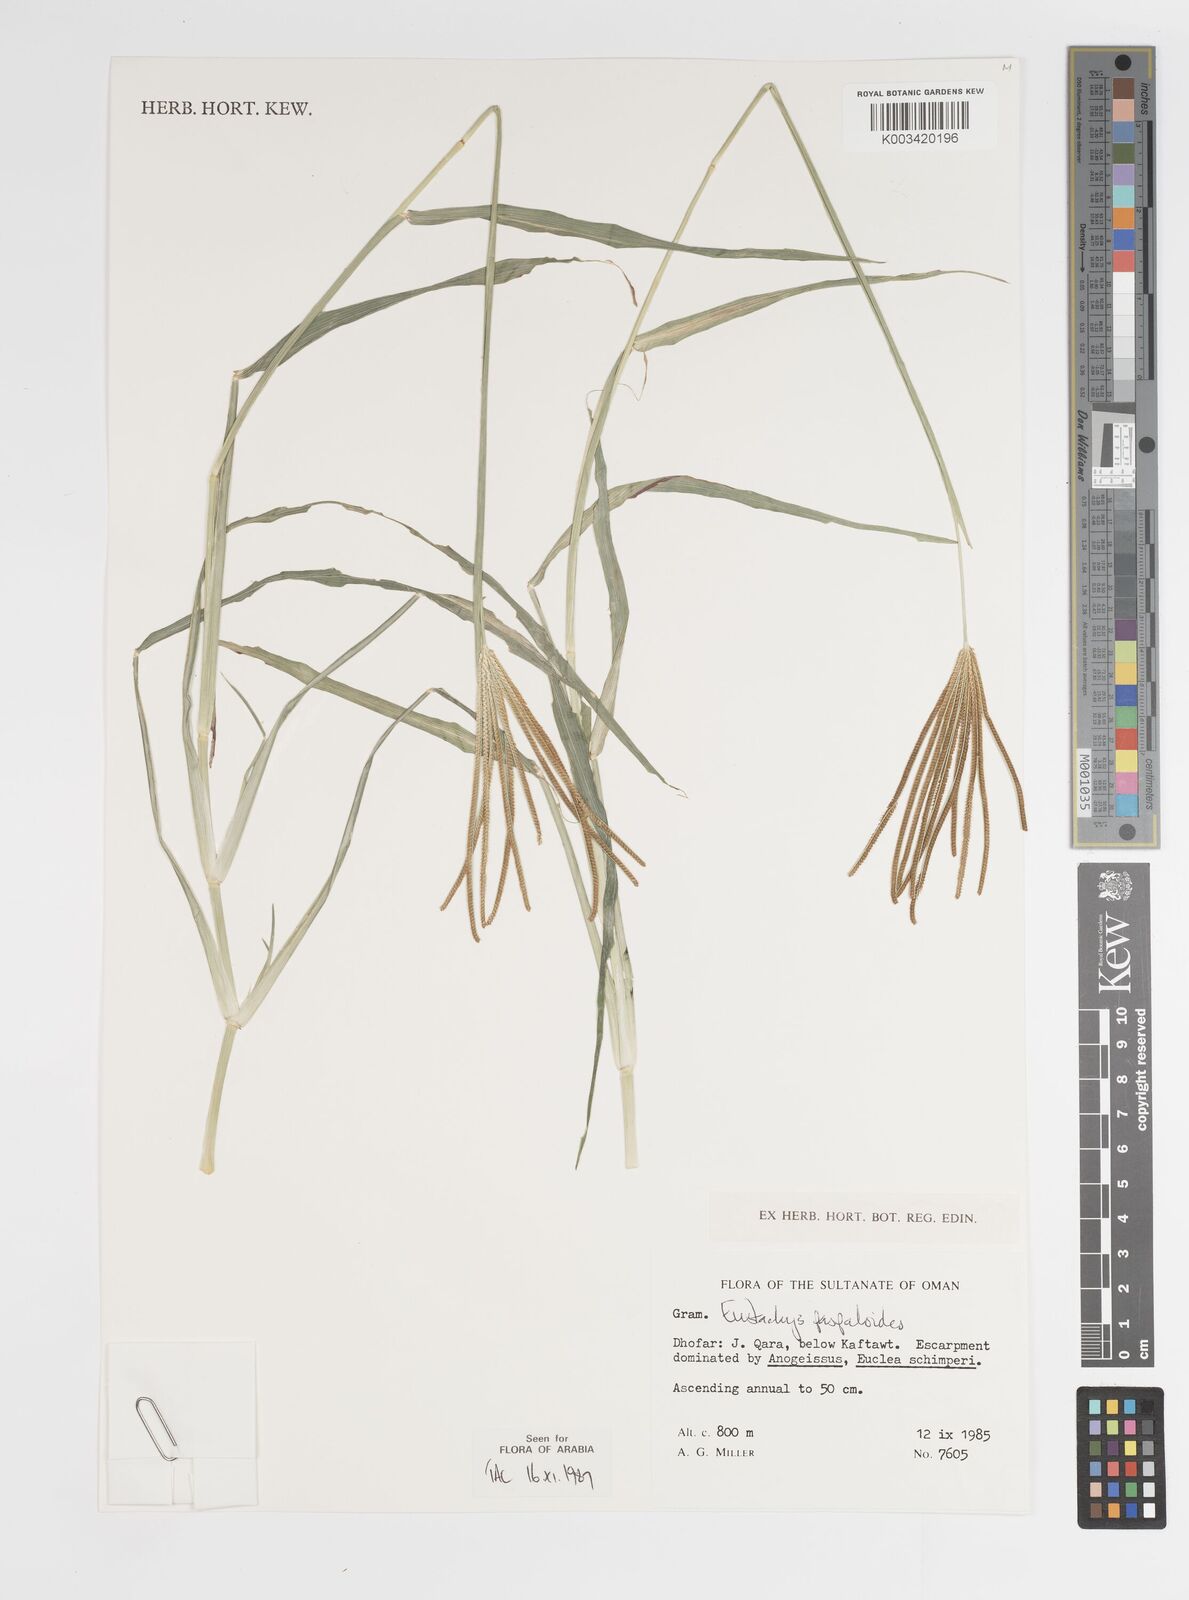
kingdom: Plantae
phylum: Tracheophyta
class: Liliopsida
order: Poales
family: Poaceae
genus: Eustachys
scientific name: Eustachys paspaloides
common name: Caribbean fingergrass
